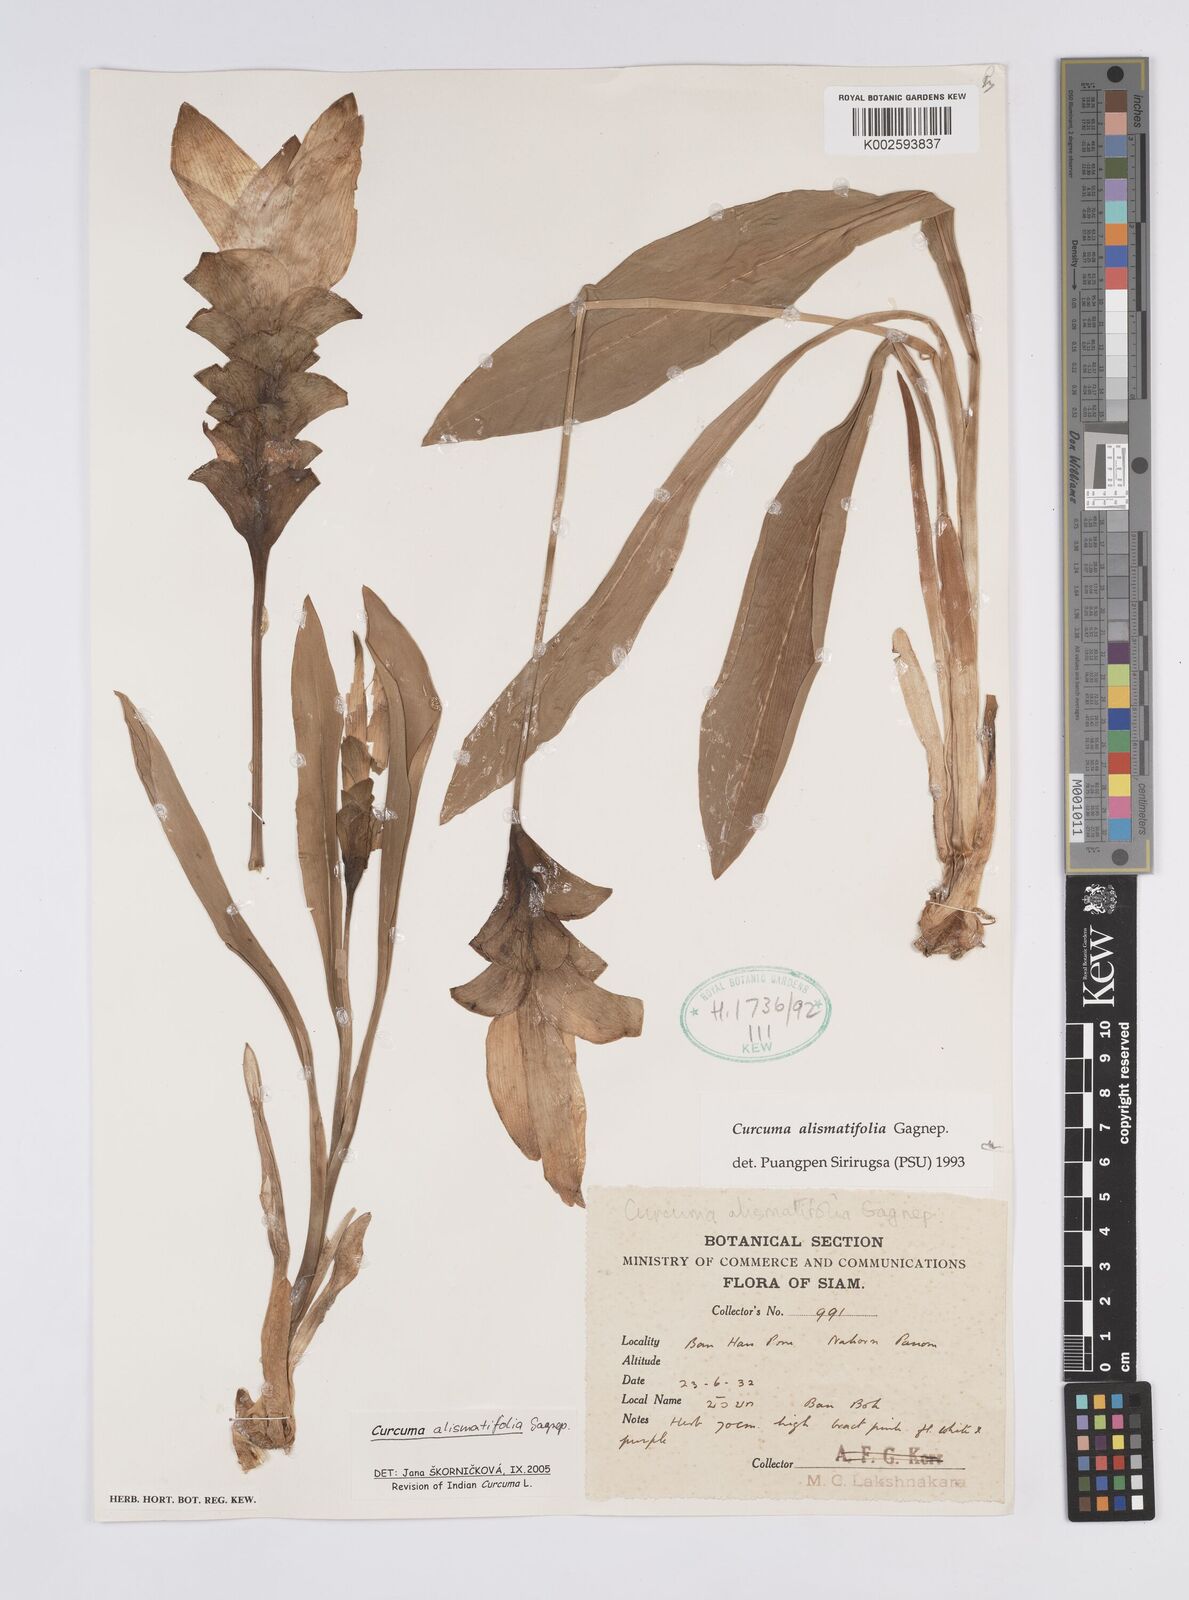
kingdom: Plantae
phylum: Tracheophyta
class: Liliopsida
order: Zingiberales
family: Zingiberaceae
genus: Curcuma
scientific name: Curcuma alismatifolia
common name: Siam tulip
